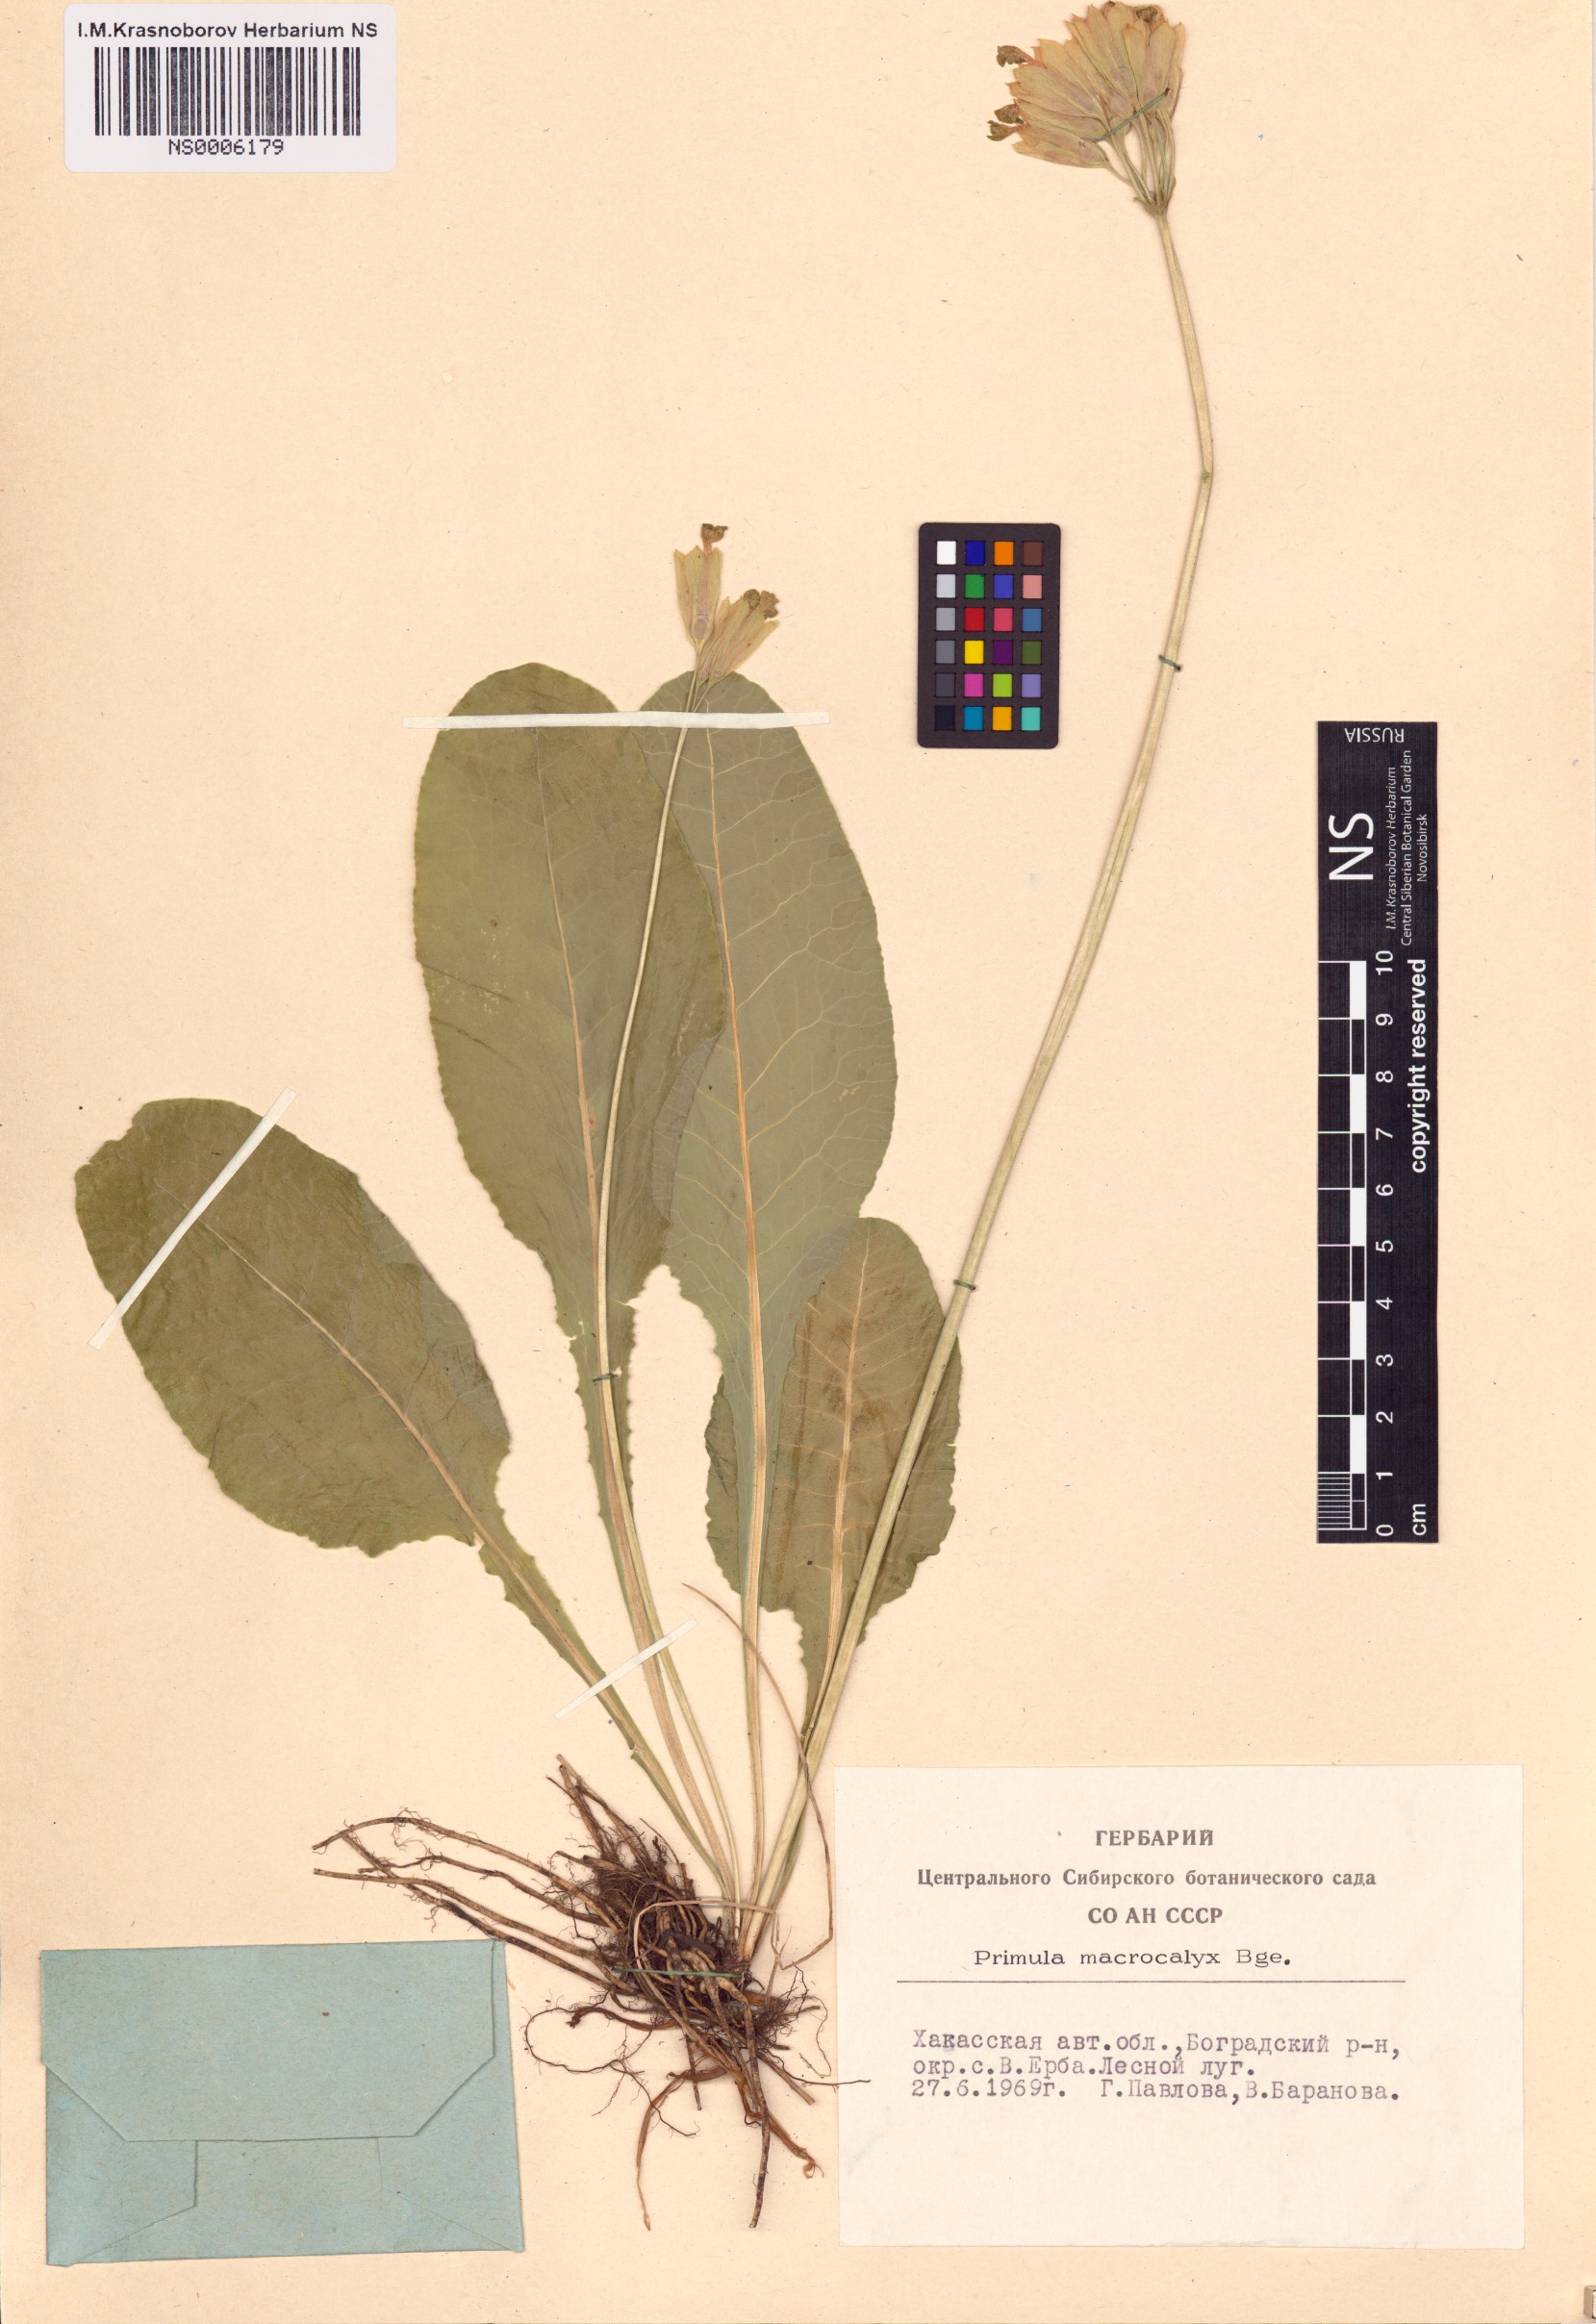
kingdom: Plantae
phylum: Tracheophyta
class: Magnoliopsida
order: Ericales
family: Primulaceae
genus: Primula
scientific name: Primula veris
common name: Cowslip
